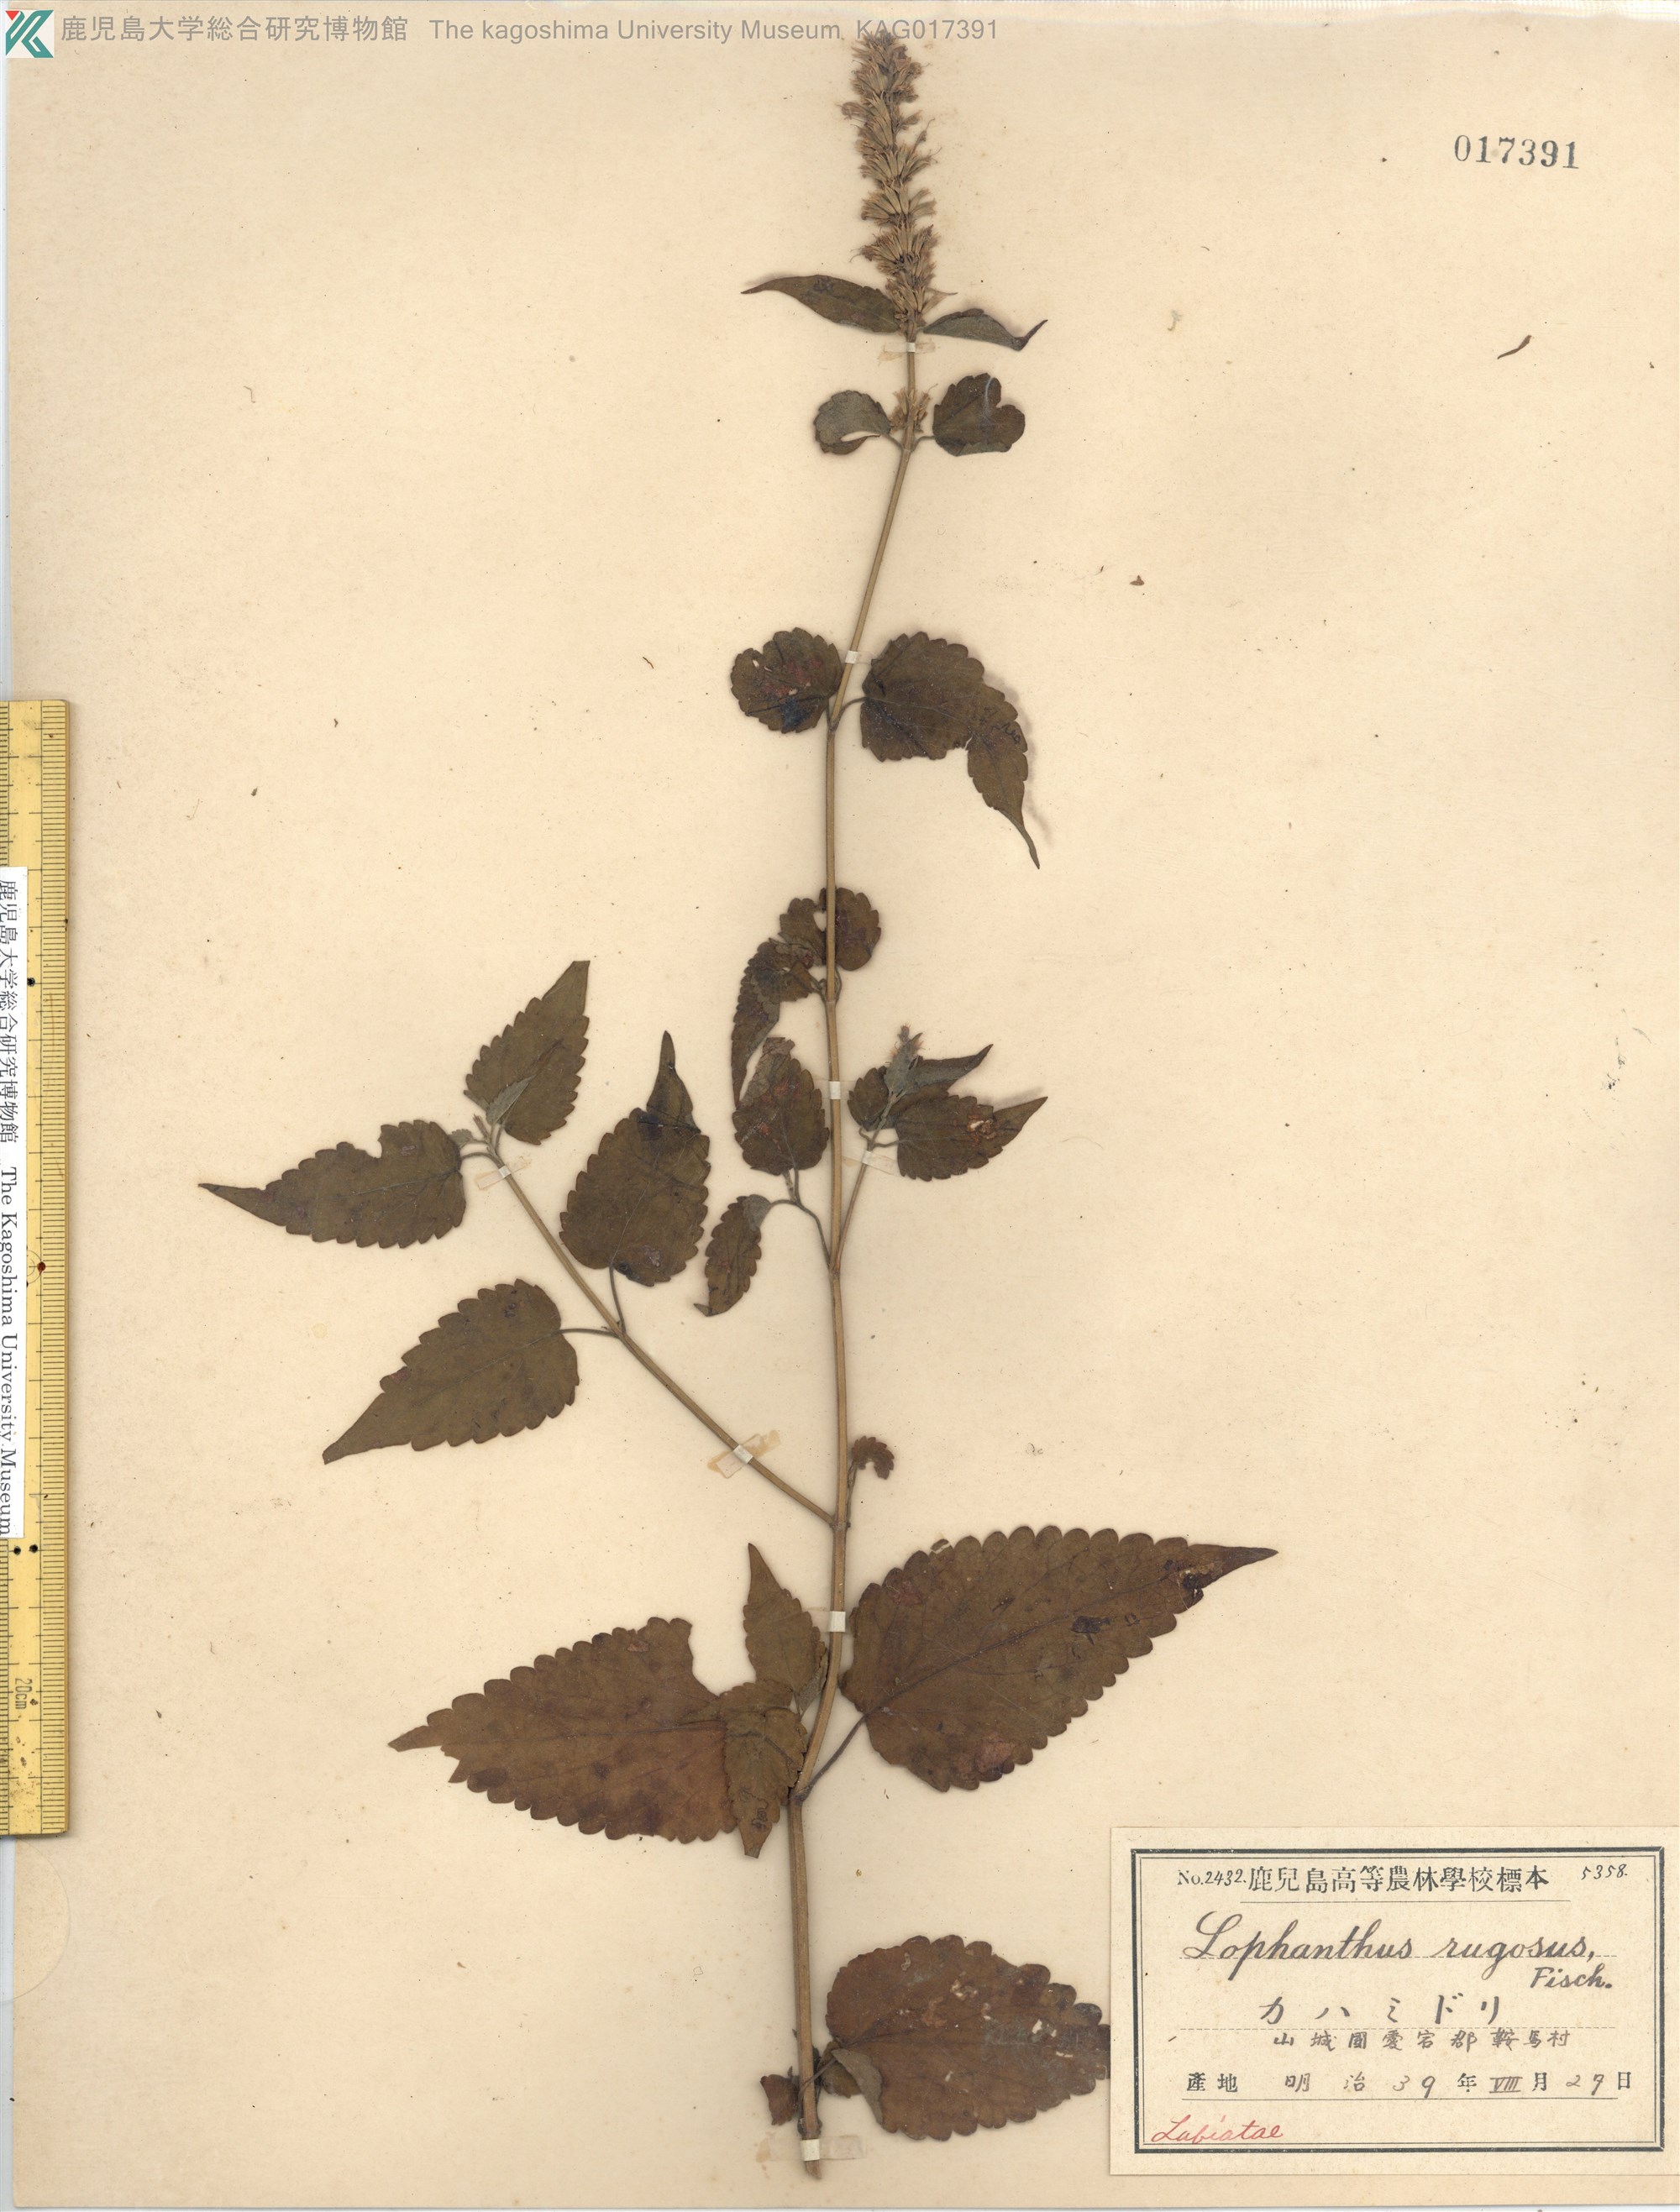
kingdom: Plantae
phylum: Tracheophyta
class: Magnoliopsida
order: Lamiales
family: Lamiaceae
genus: Agastache
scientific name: Agastache rugosa
